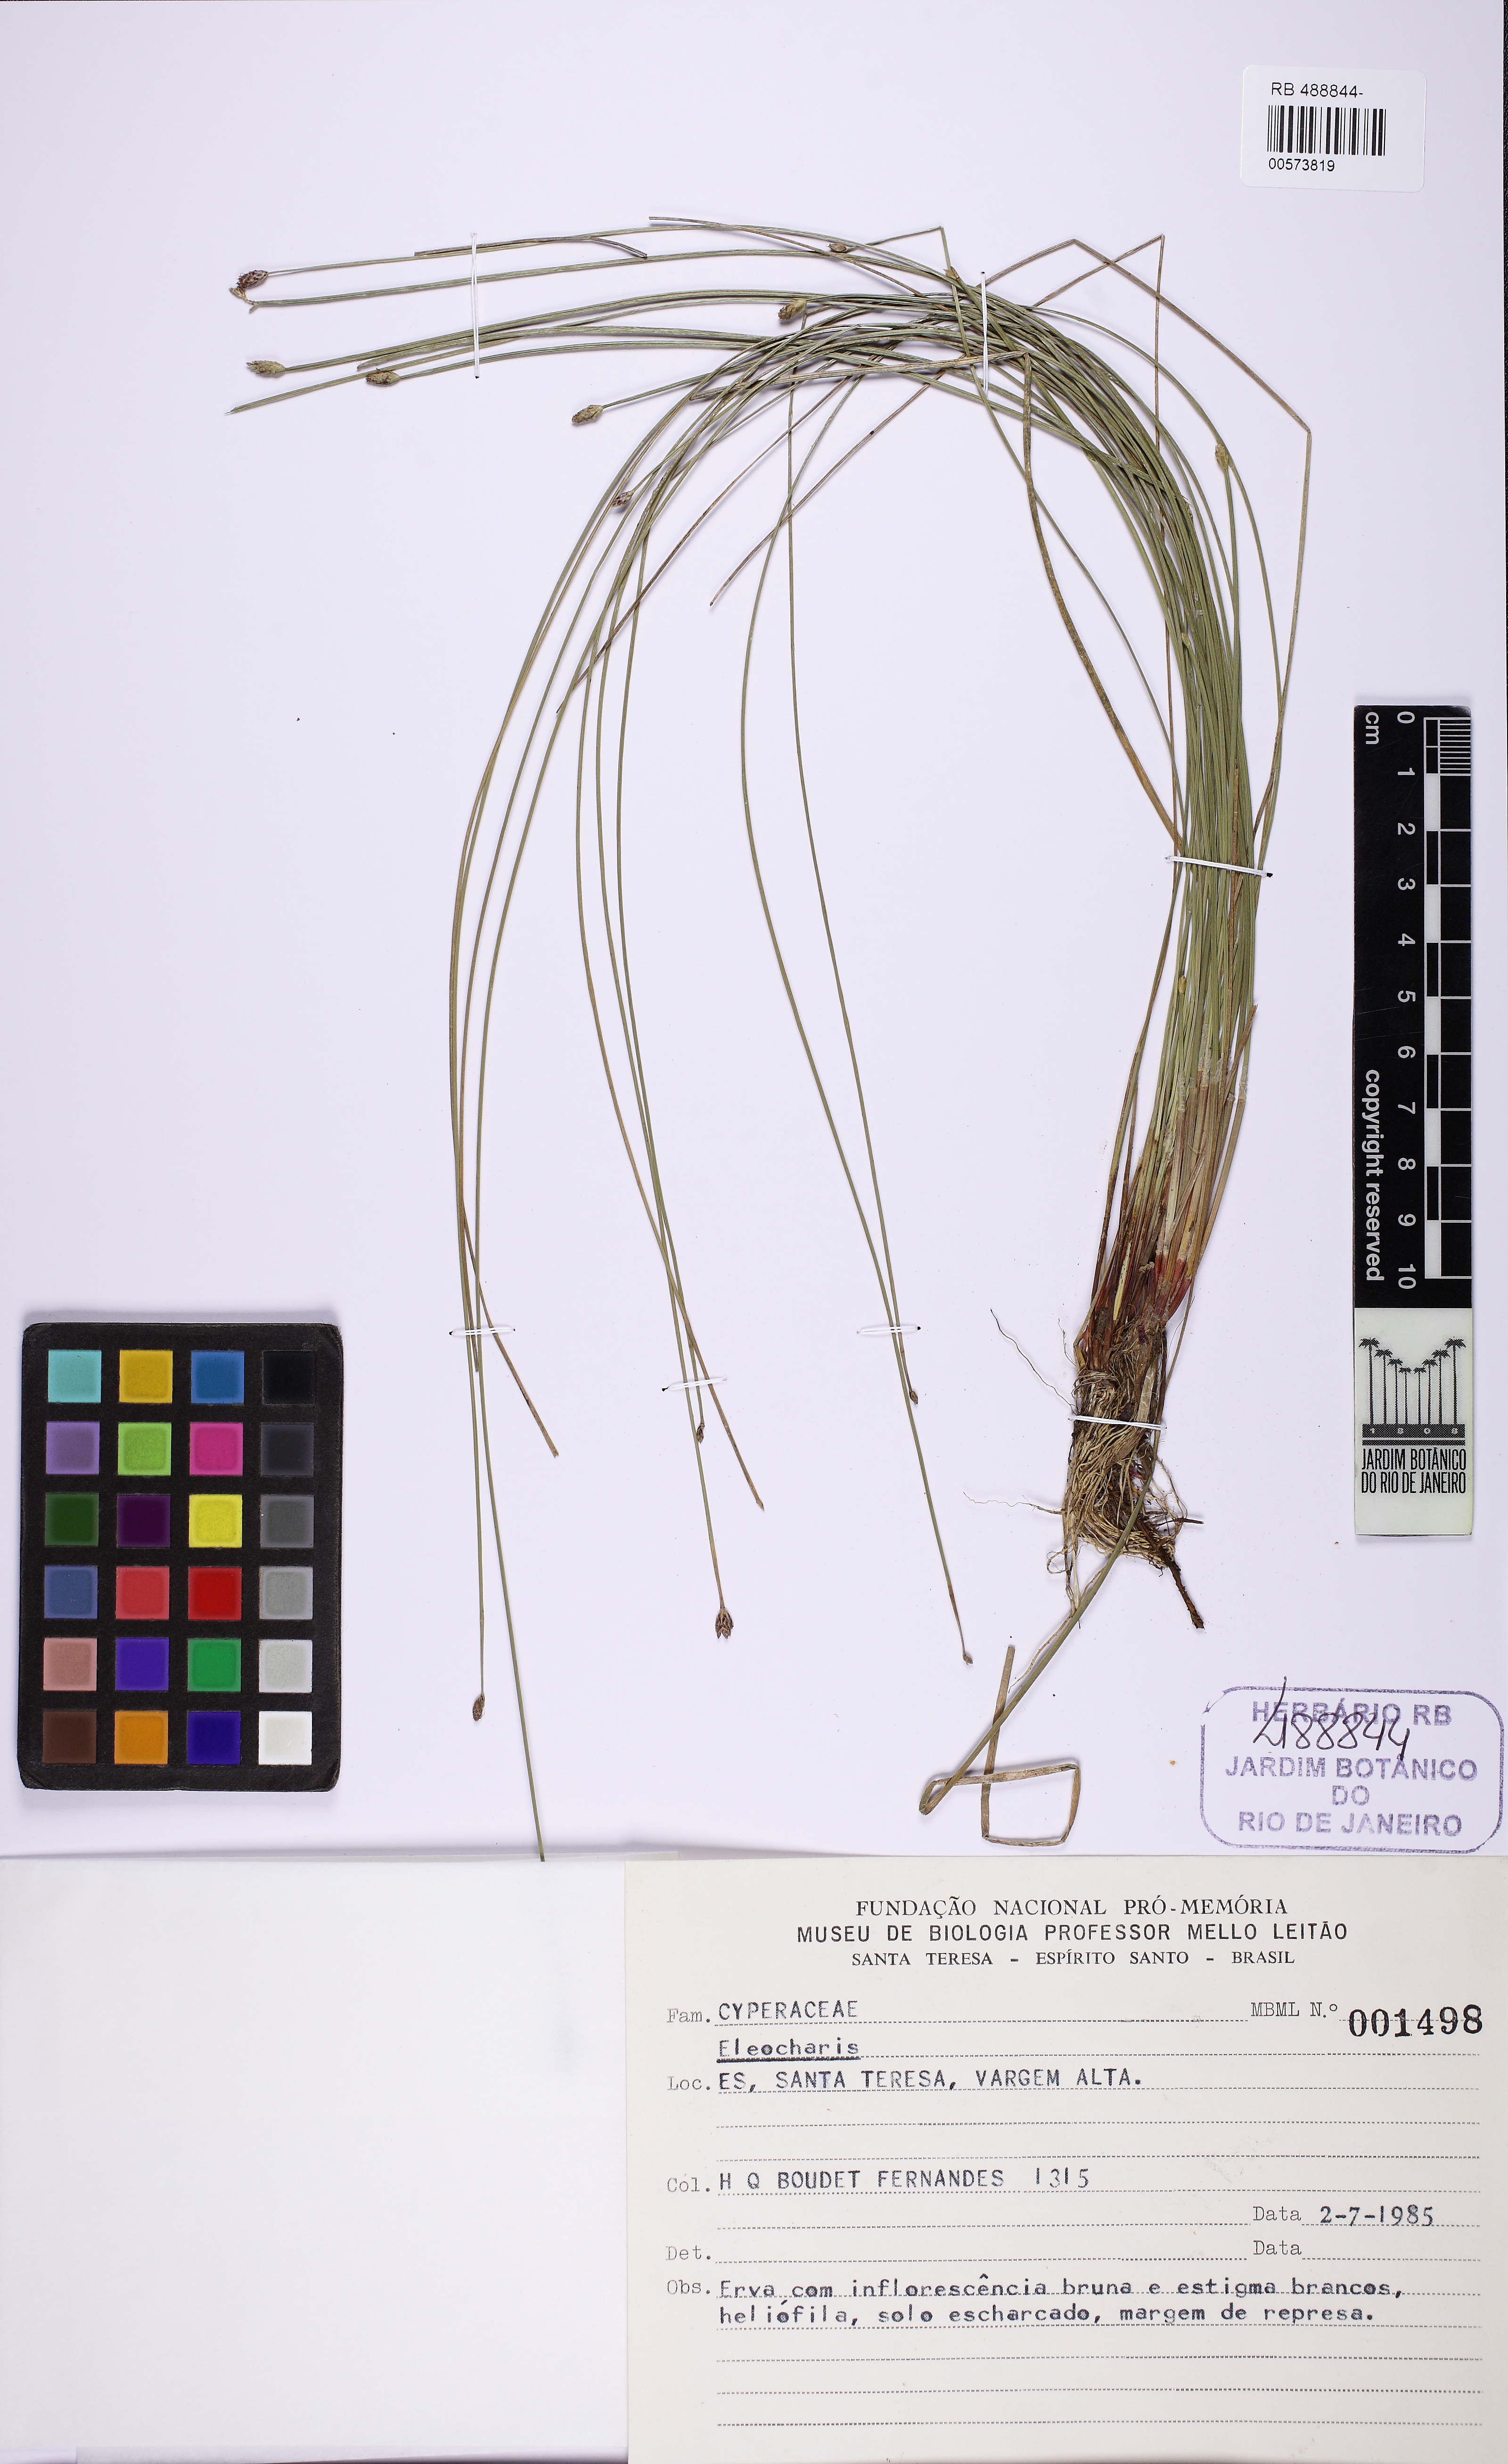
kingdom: Plantae
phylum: Tracheophyta
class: Liliopsida
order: Poales
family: Cyperaceae
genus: Eleocharis
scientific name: Eleocharis maculosa
